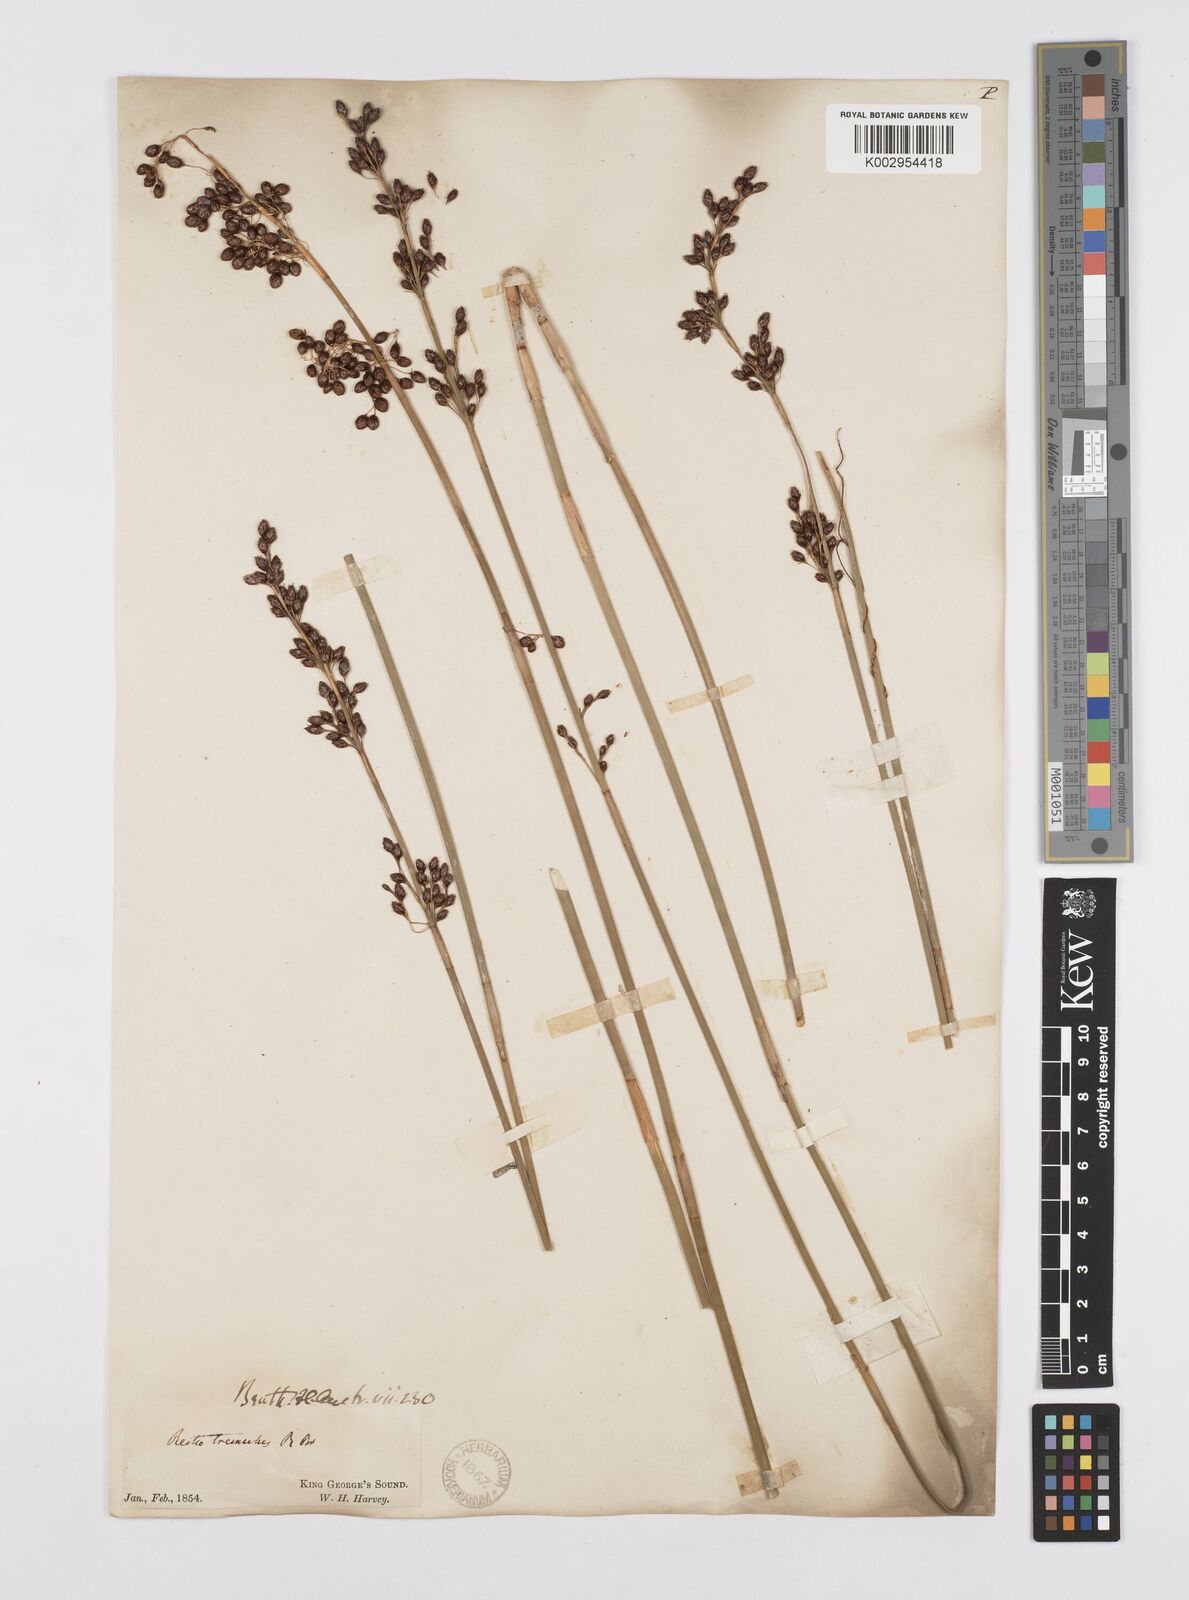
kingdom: Plantae
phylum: Tracheophyta
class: Liliopsida
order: Poales
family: Restionaceae
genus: Tremulina
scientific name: Tremulina tremula
